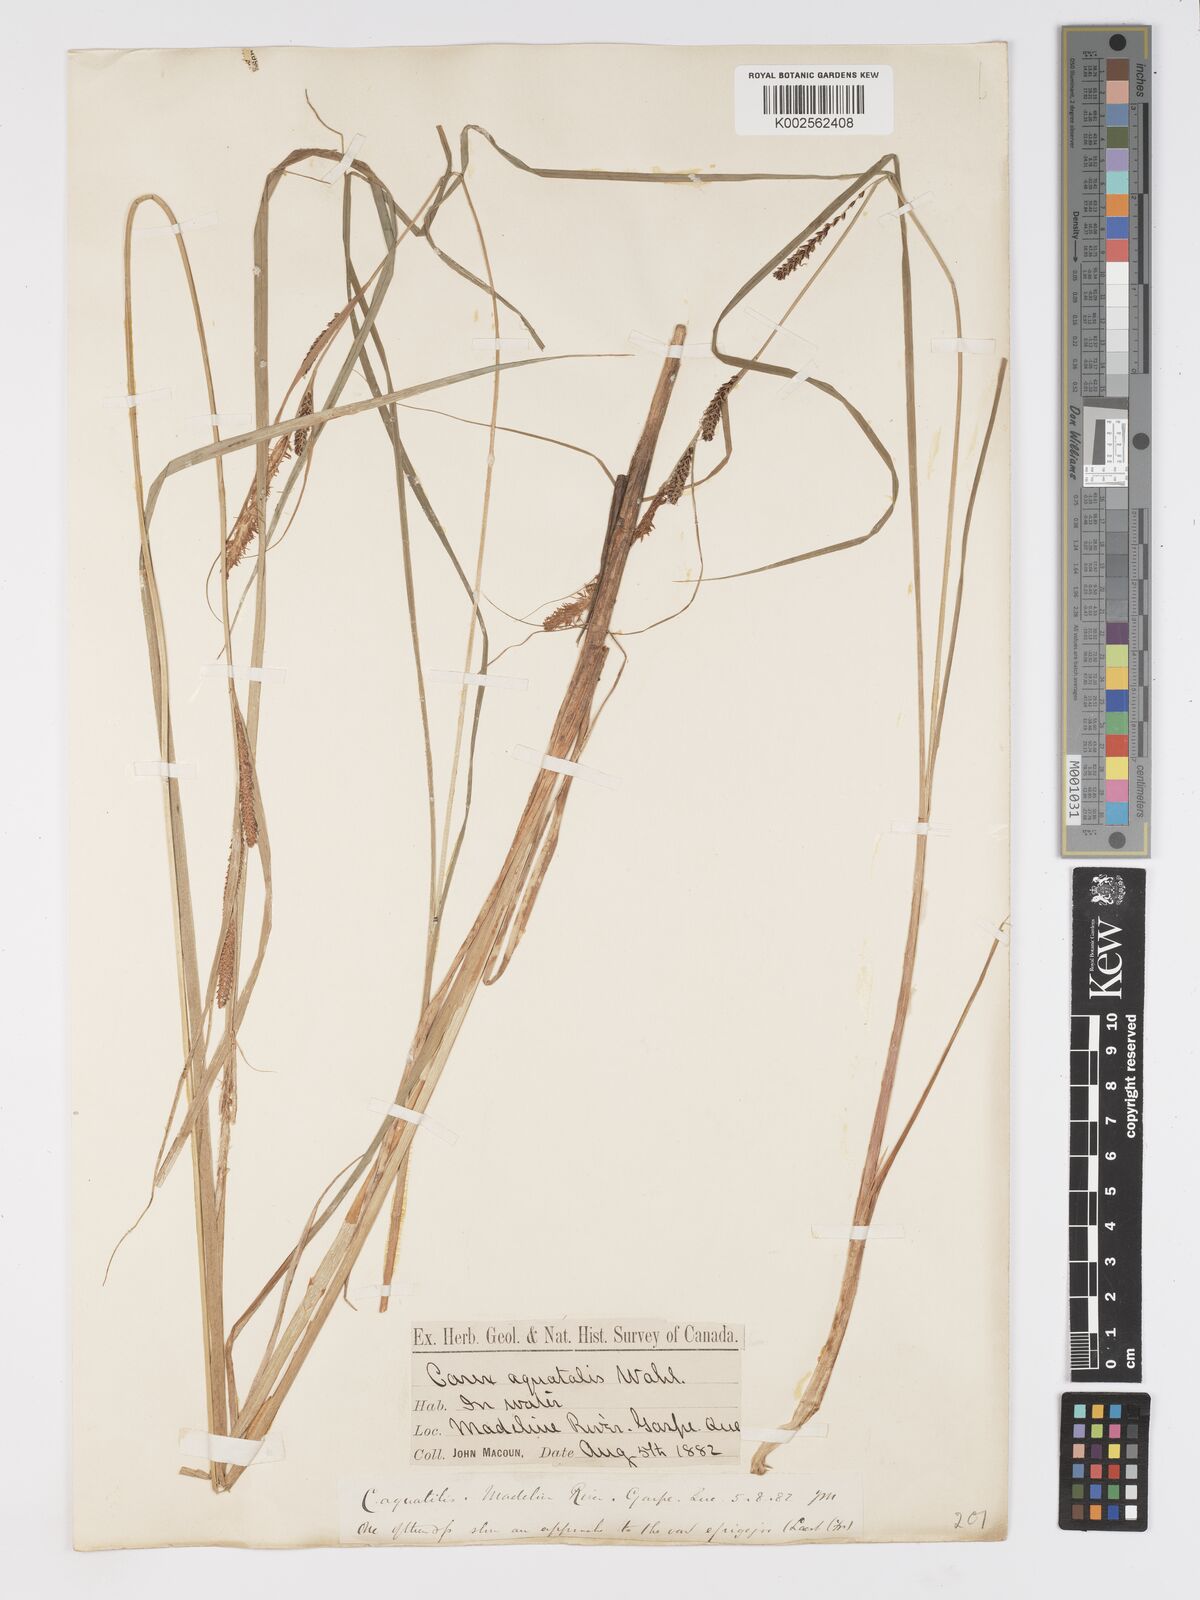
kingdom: Plantae
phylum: Tracheophyta
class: Liliopsida
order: Poales
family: Cyperaceae
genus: Carex
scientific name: Carex aquatilis
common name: Water sedge
